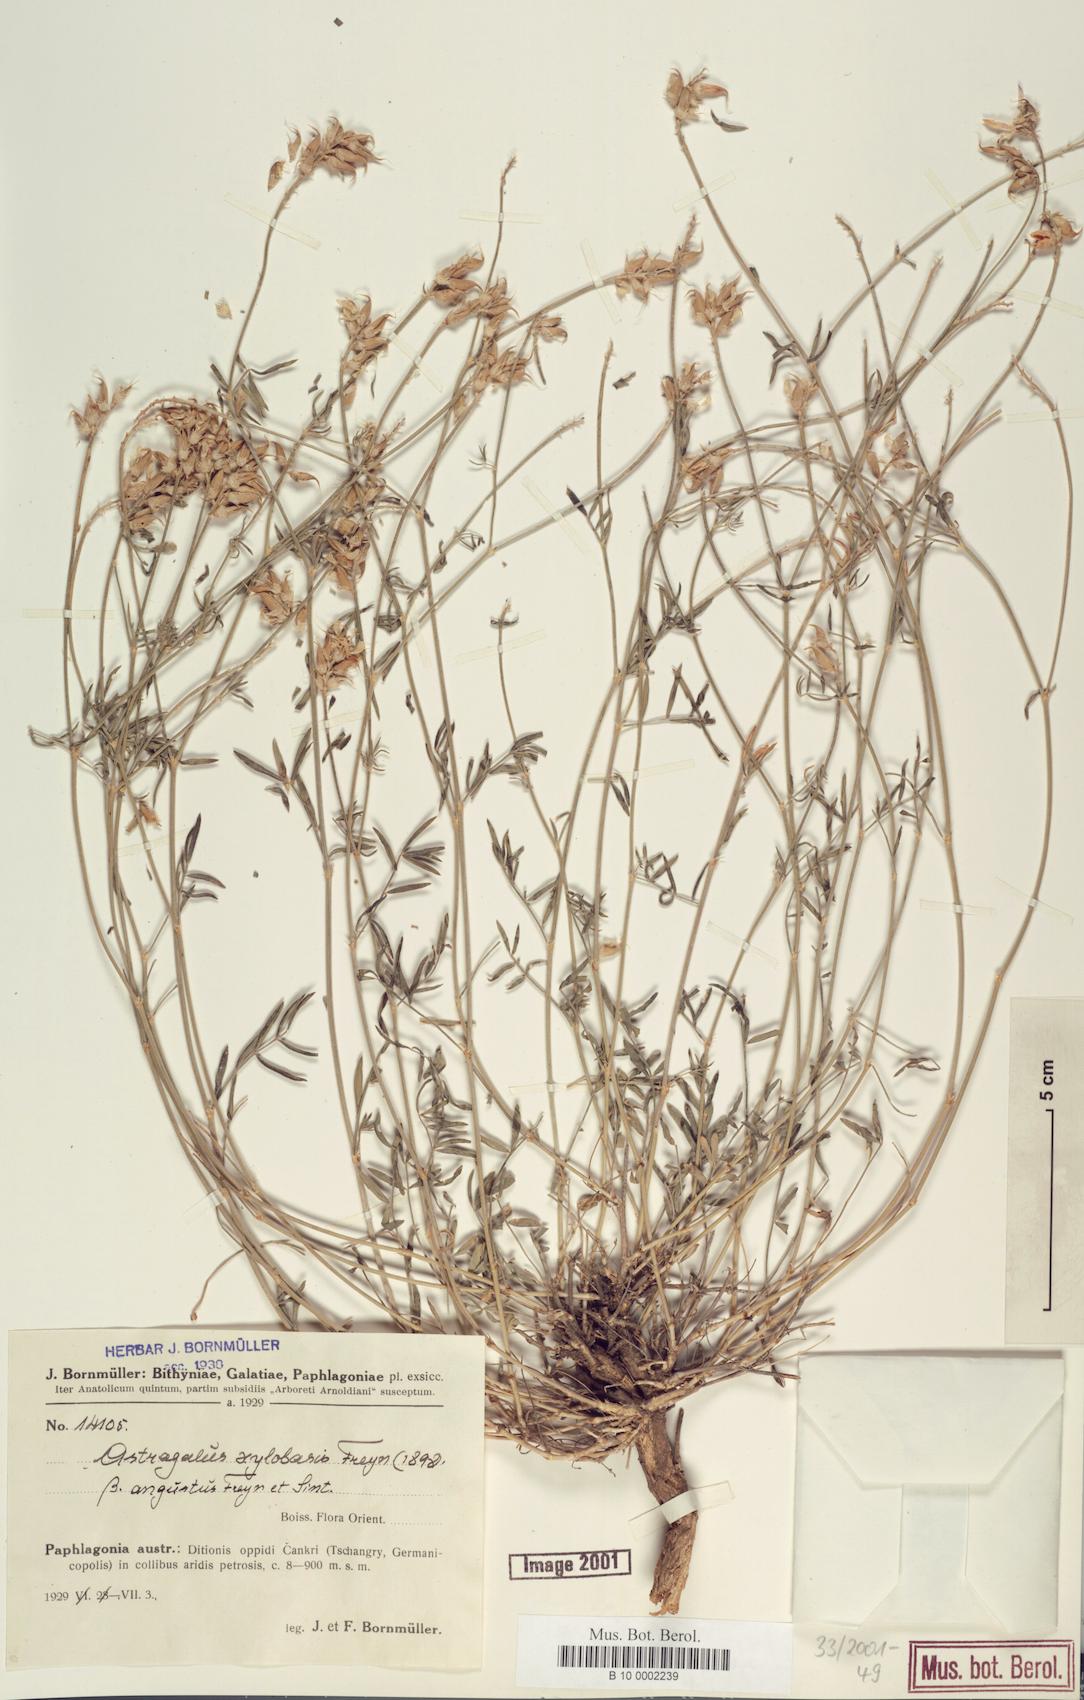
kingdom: Plantae
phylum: Tracheophyta
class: Magnoliopsida
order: Fabales
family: Fabaceae
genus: Astragalus
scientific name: Astragalus aduncus
